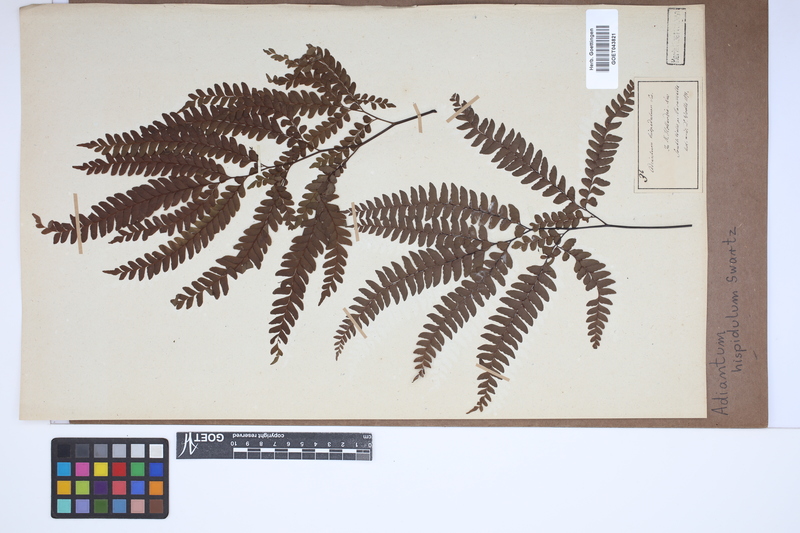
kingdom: Plantae
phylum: Tracheophyta
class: Polypodiopsida
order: Polypodiales
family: Pteridaceae
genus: Adiantum
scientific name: Adiantum hispidulum
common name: Rough maidenhair
